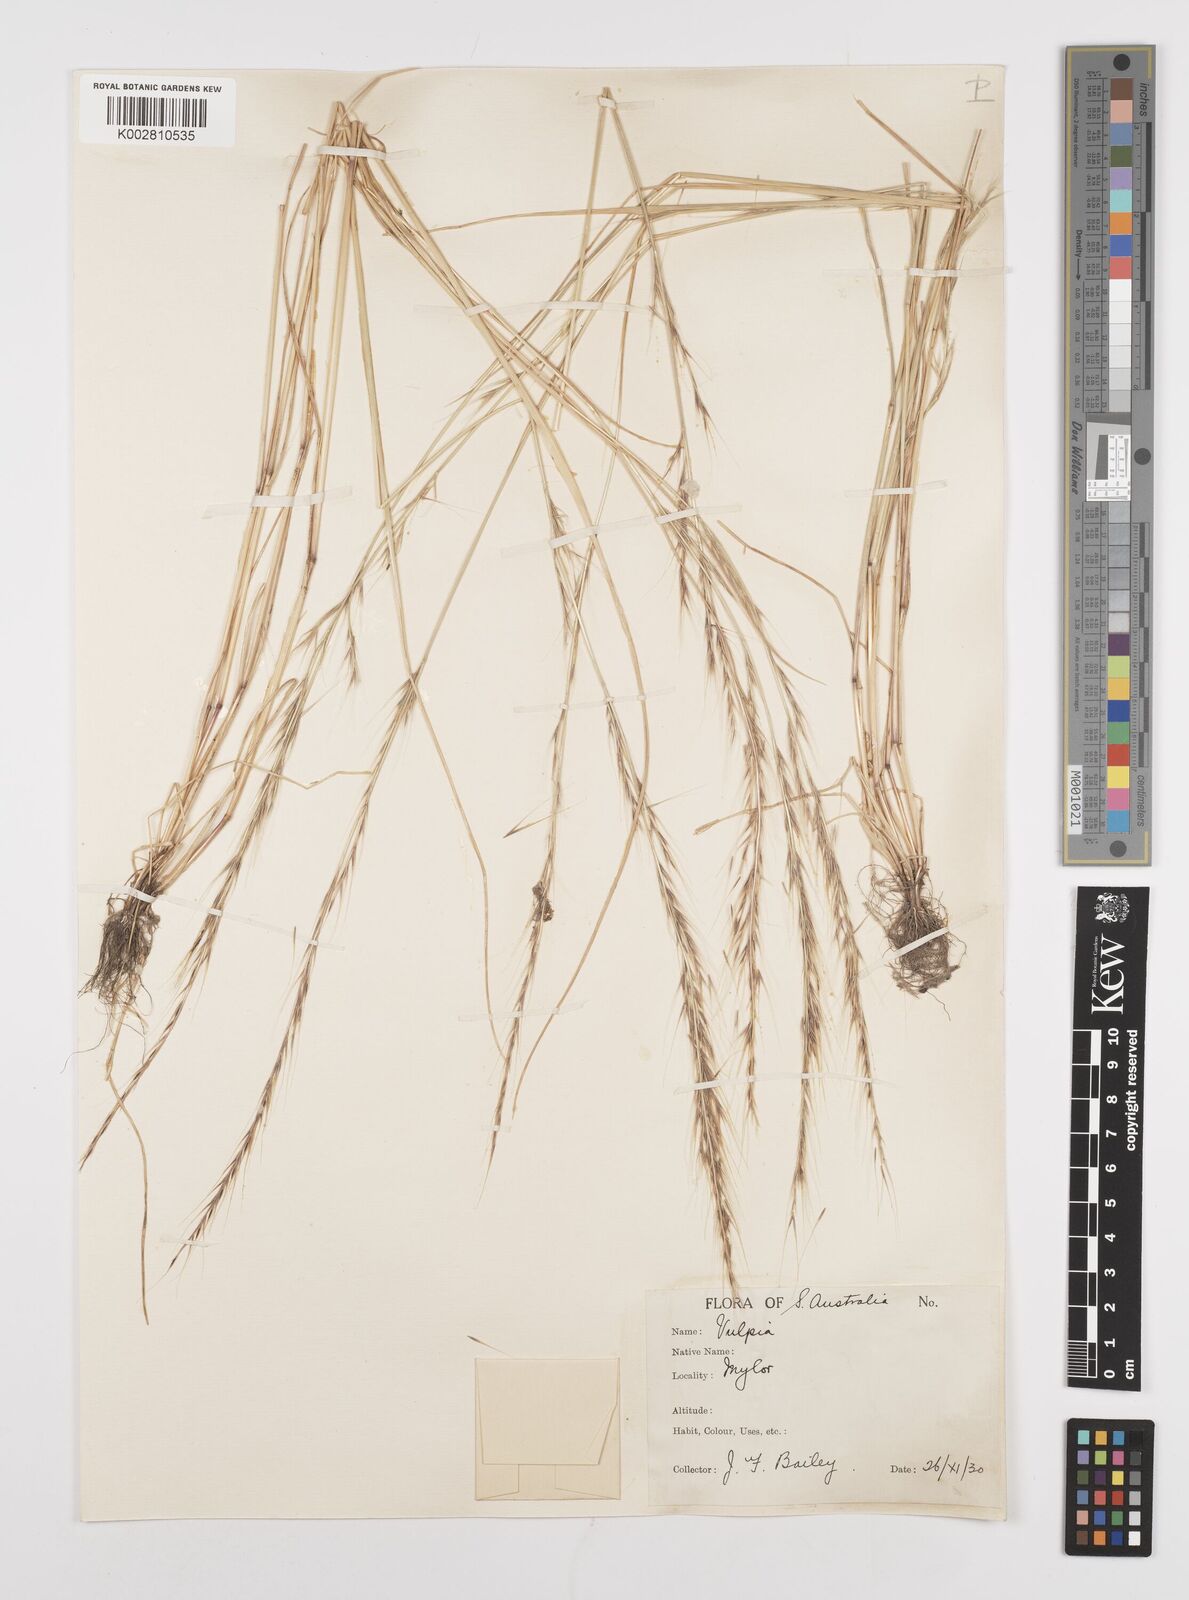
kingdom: Plantae
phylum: Tracheophyta
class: Liliopsida
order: Poales
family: Poaceae
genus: Festuca
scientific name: Festuca myuros
